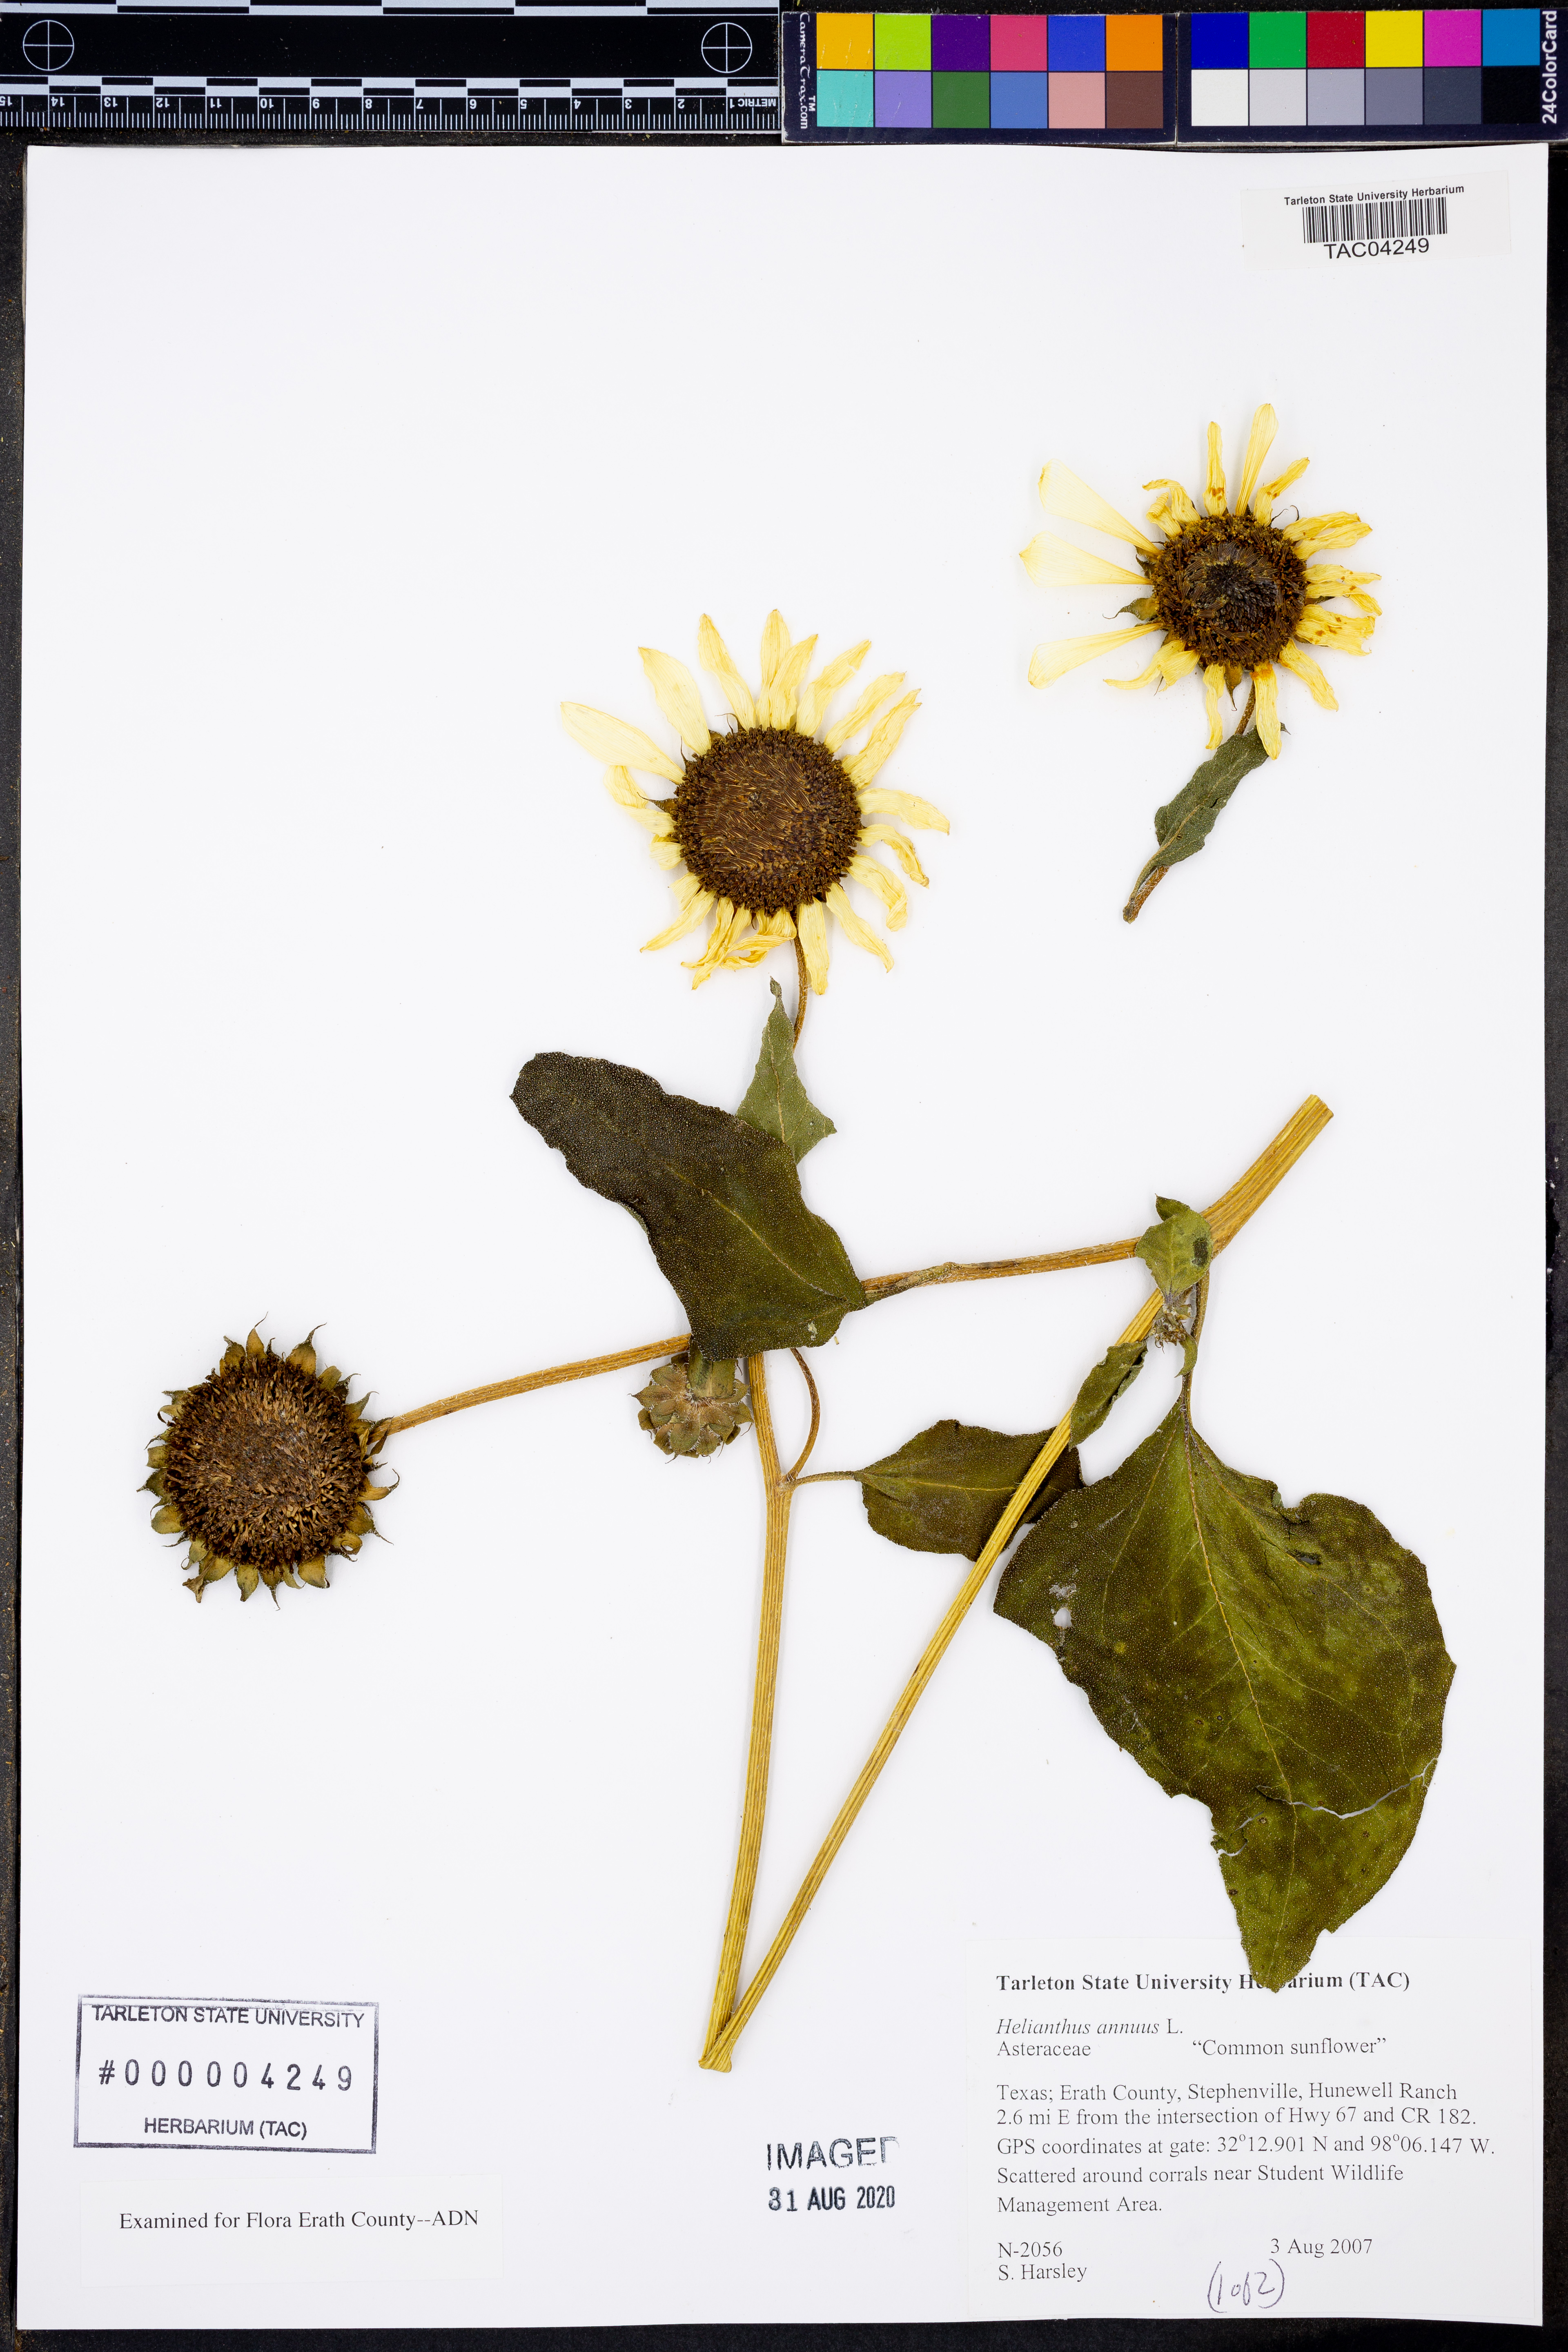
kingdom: Plantae
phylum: Tracheophyta
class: Magnoliopsida
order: Asterales
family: Asteraceae
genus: Helianthus
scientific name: Helianthus annuus
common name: Sunflower
